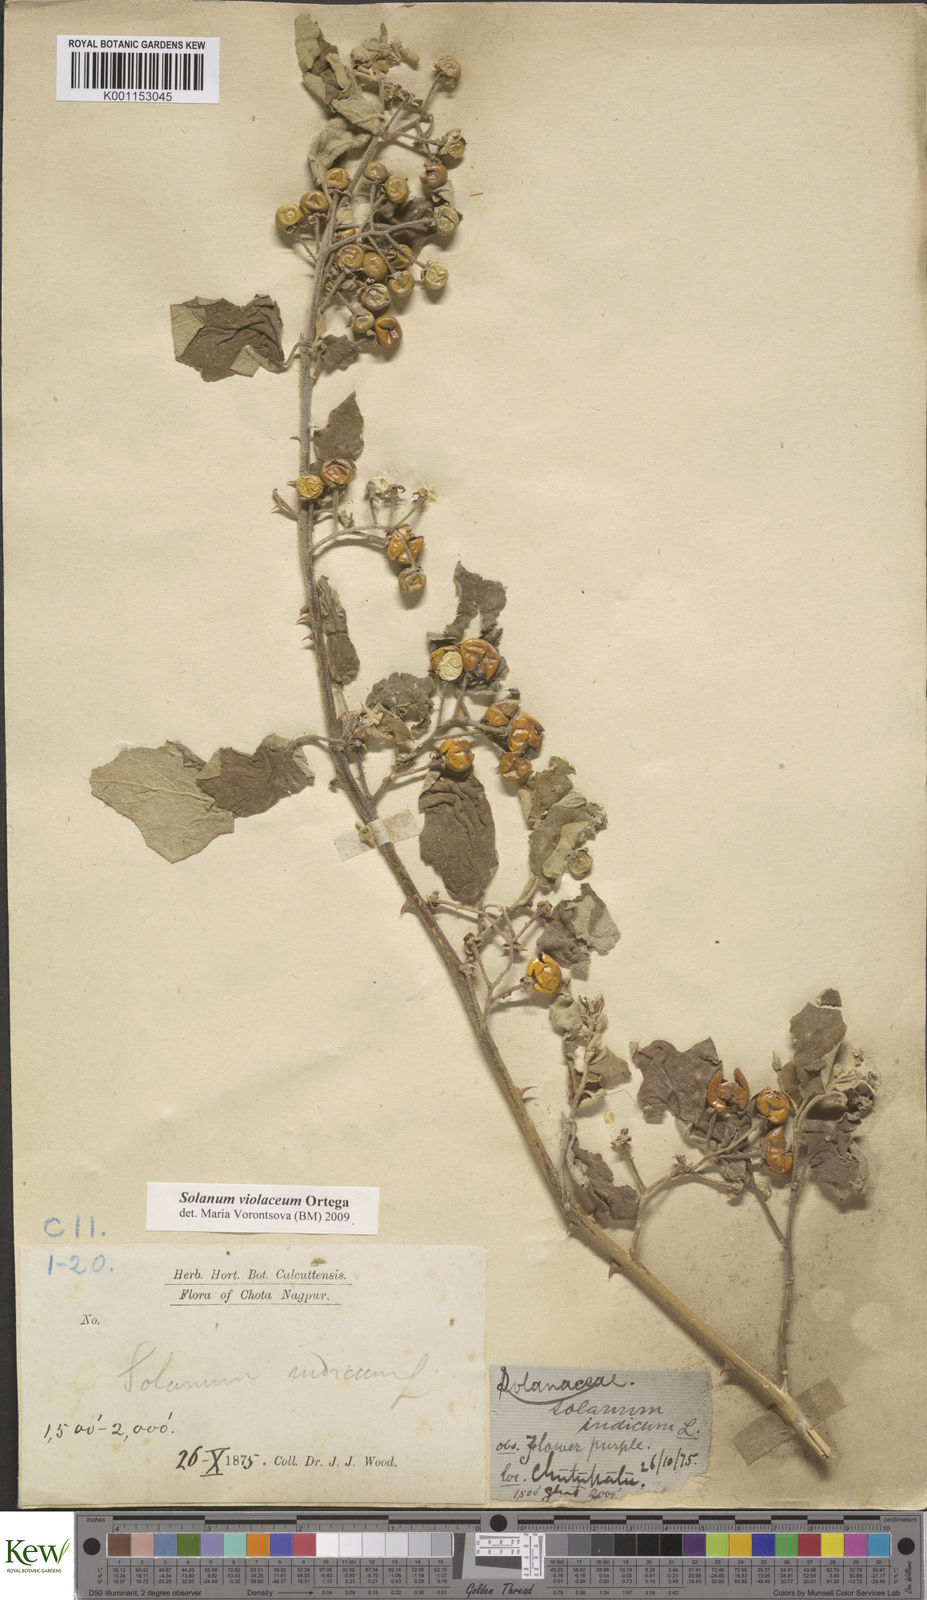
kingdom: Plantae
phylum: Tracheophyta
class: Magnoliopsida
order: Solanales
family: Solanaceae
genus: Solanum
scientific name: Solanum violaceum
